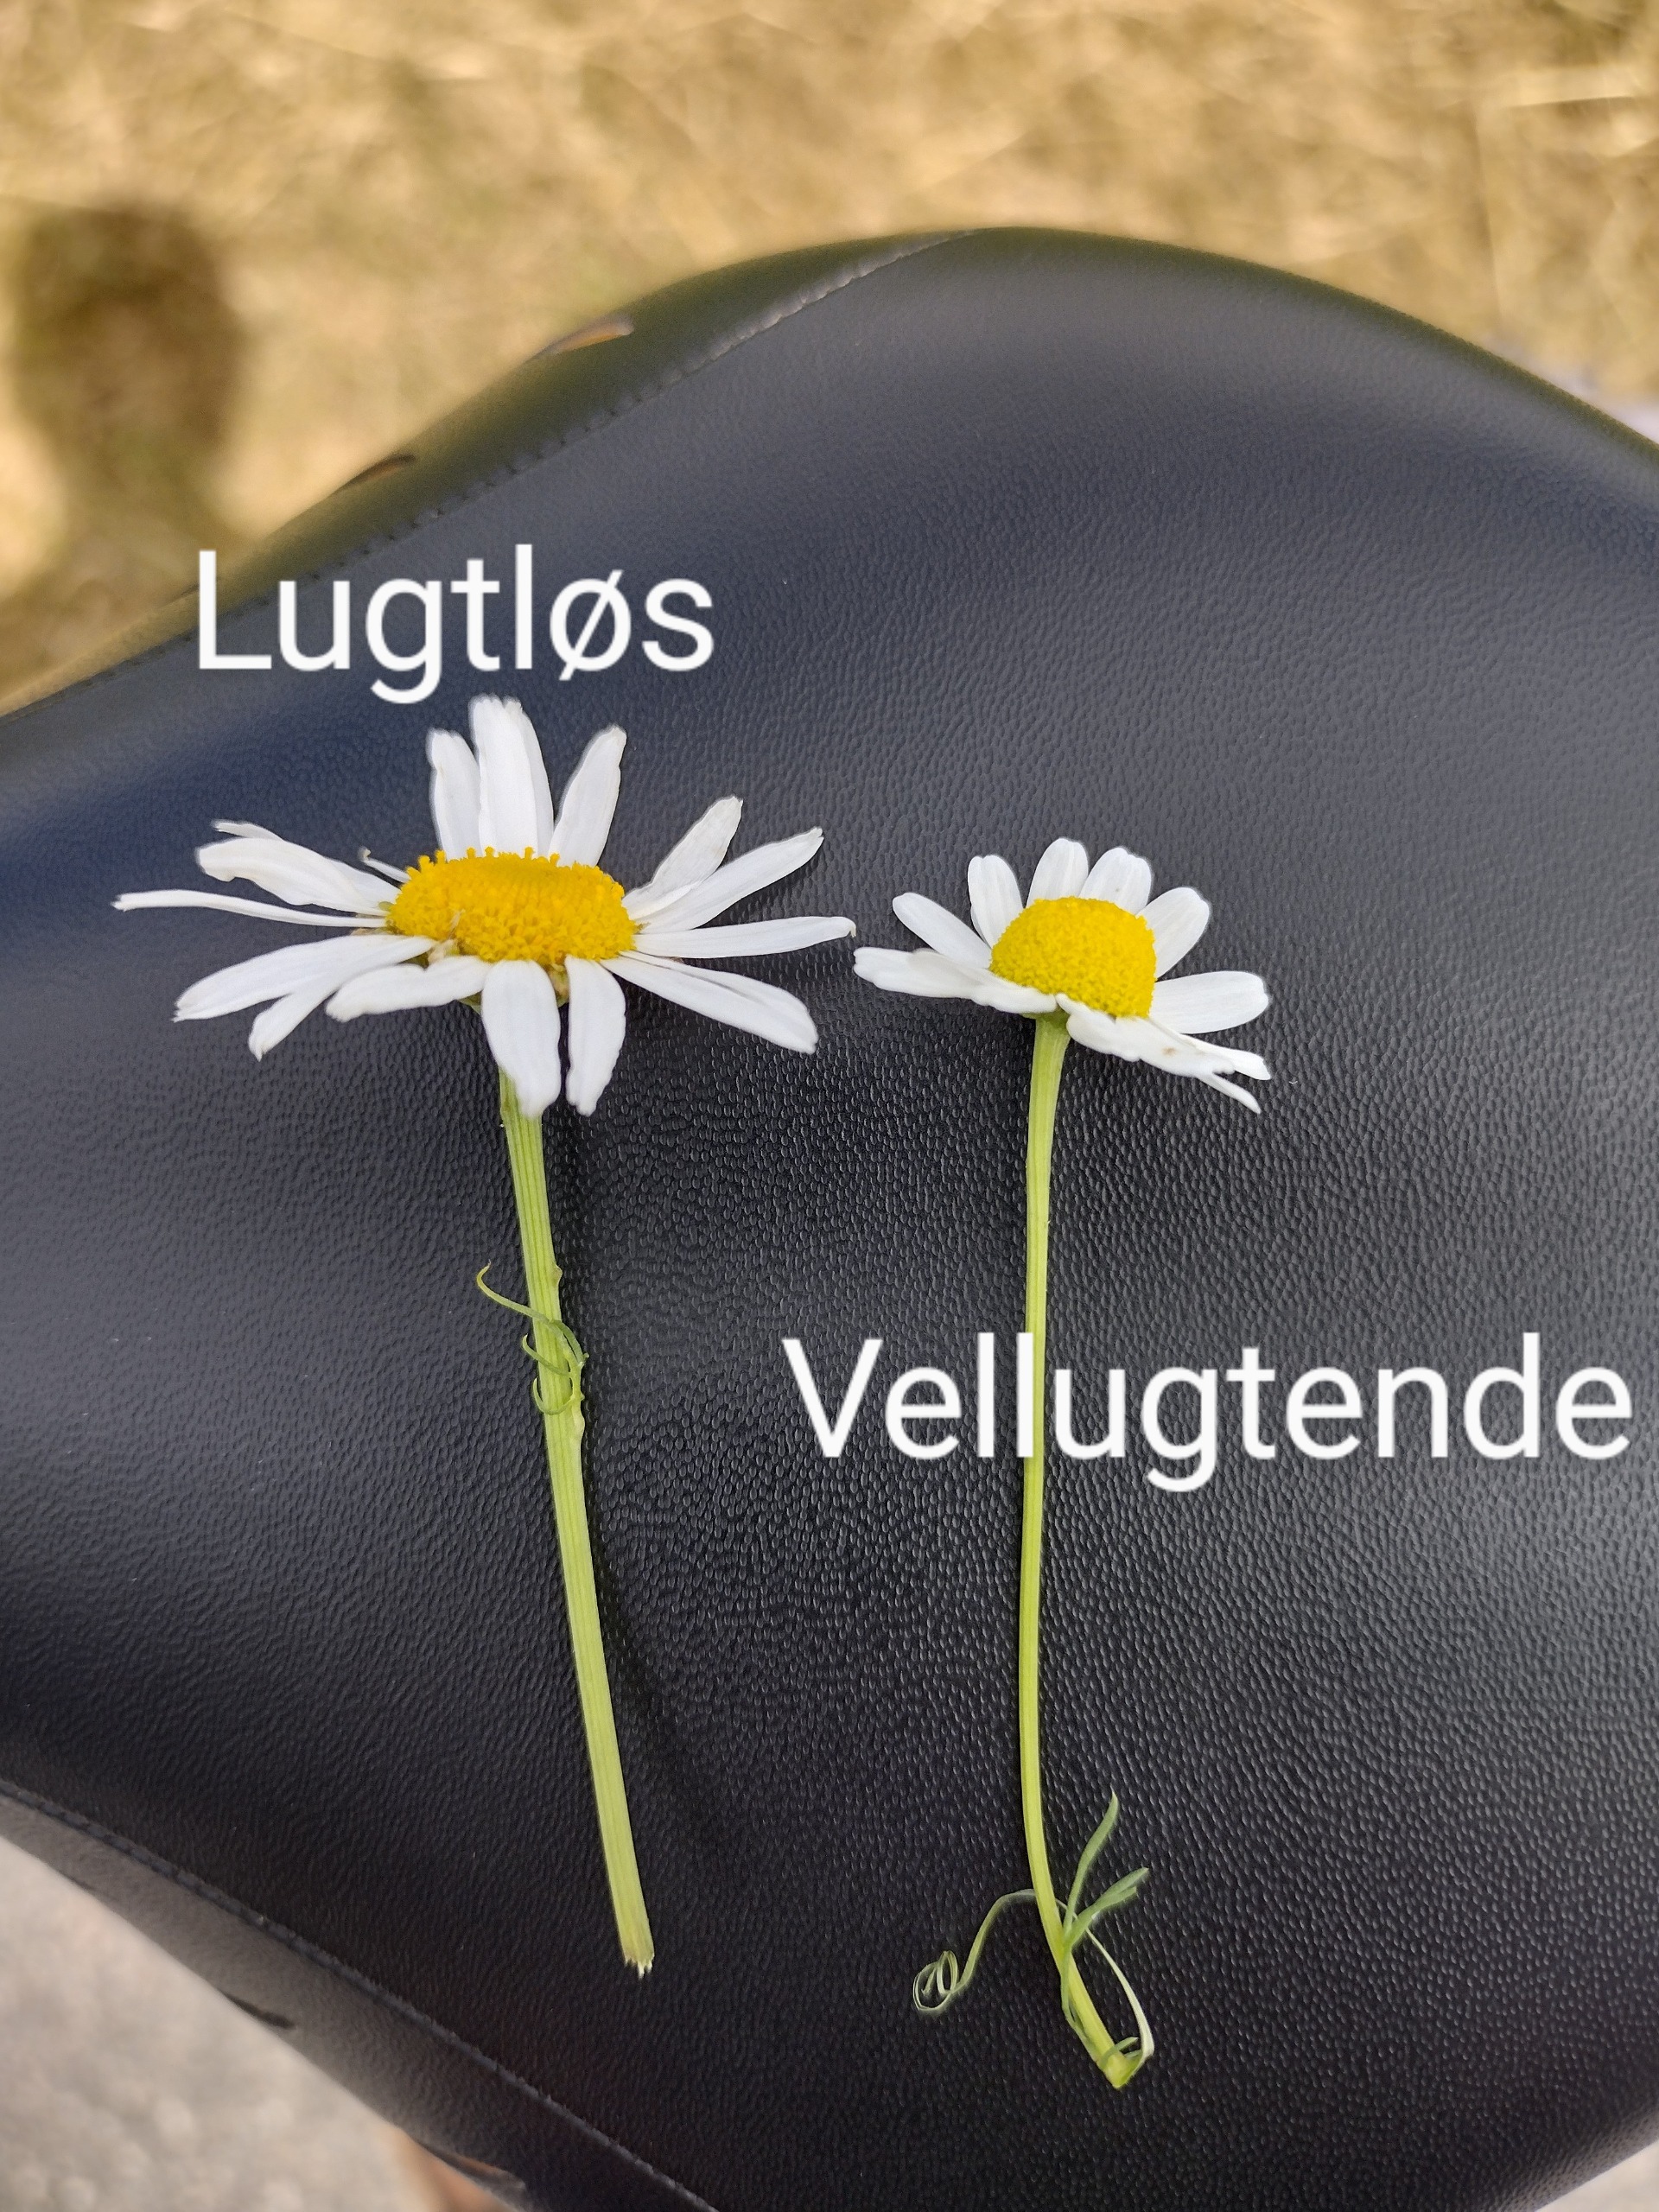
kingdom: Plantae
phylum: Tracheophyta
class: Magnoliopsida
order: Asterales
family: Asteraceae
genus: Tripleurospermum
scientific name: Tripleurospermum inodorum
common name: Lugtløs kamille
